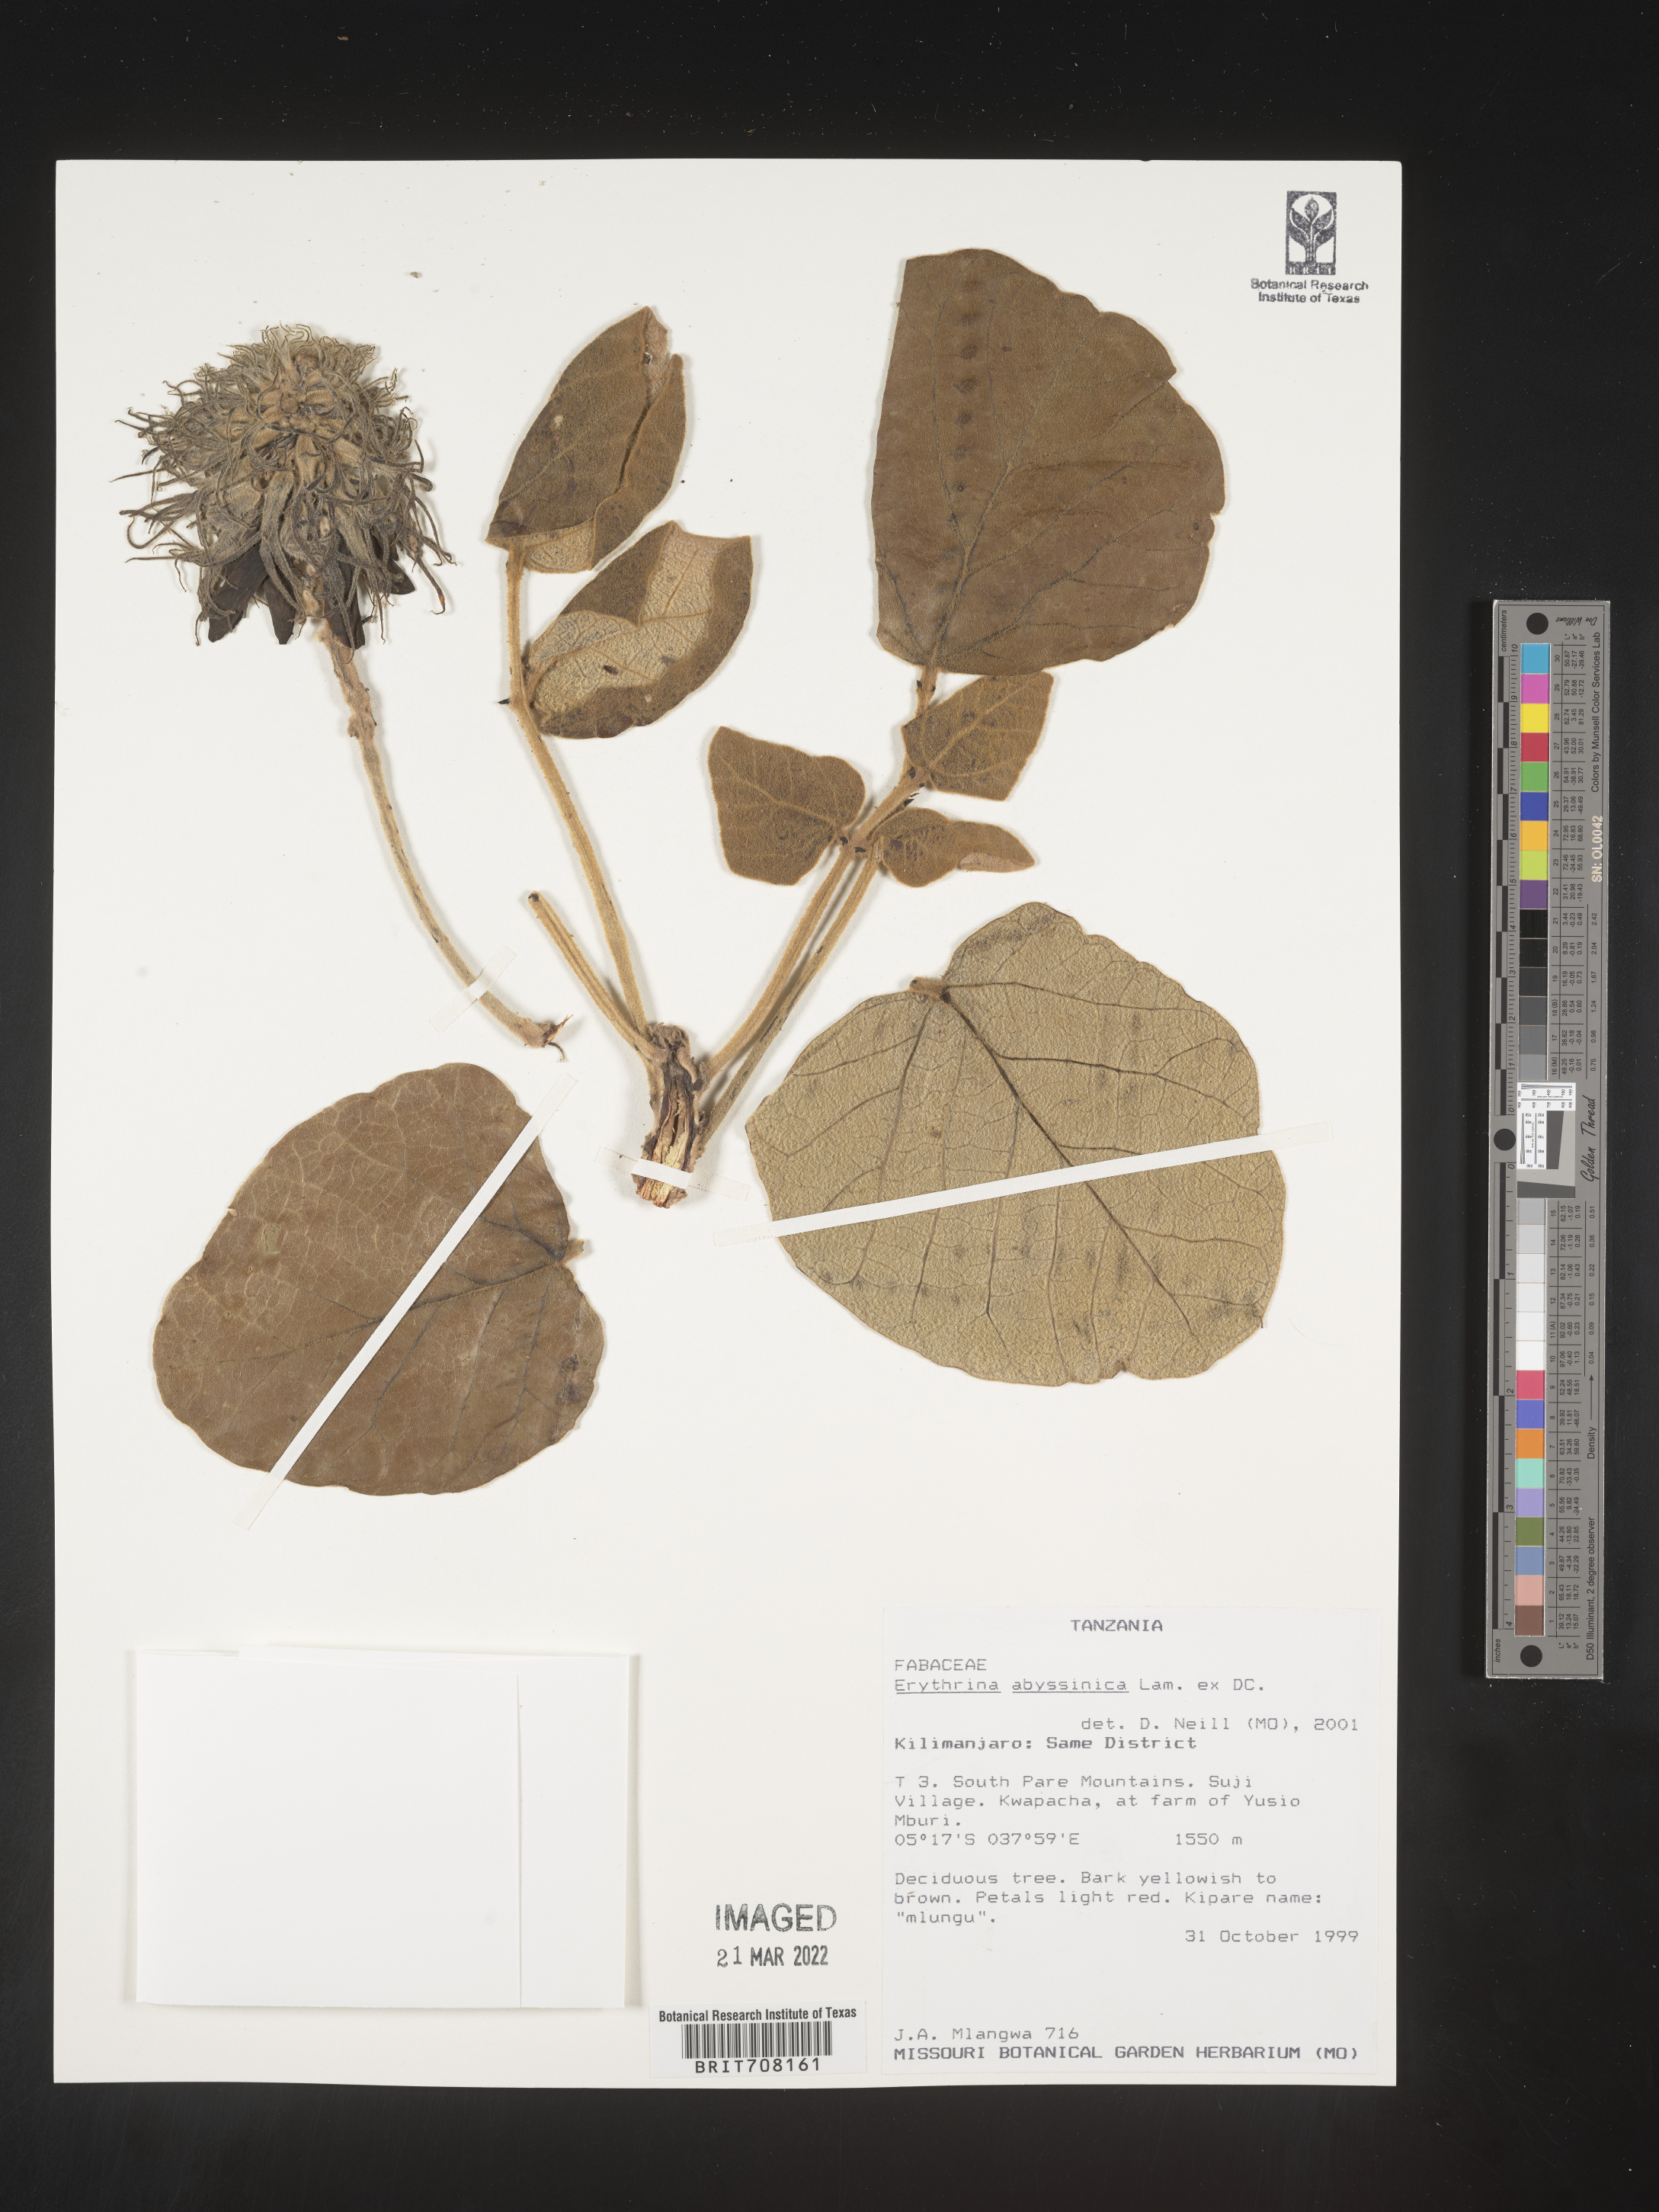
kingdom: Plantae
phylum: Tracheophyta
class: Magnoliopsida
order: Fabales
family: Fabaceae
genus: Erythrina
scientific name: Erythrina
